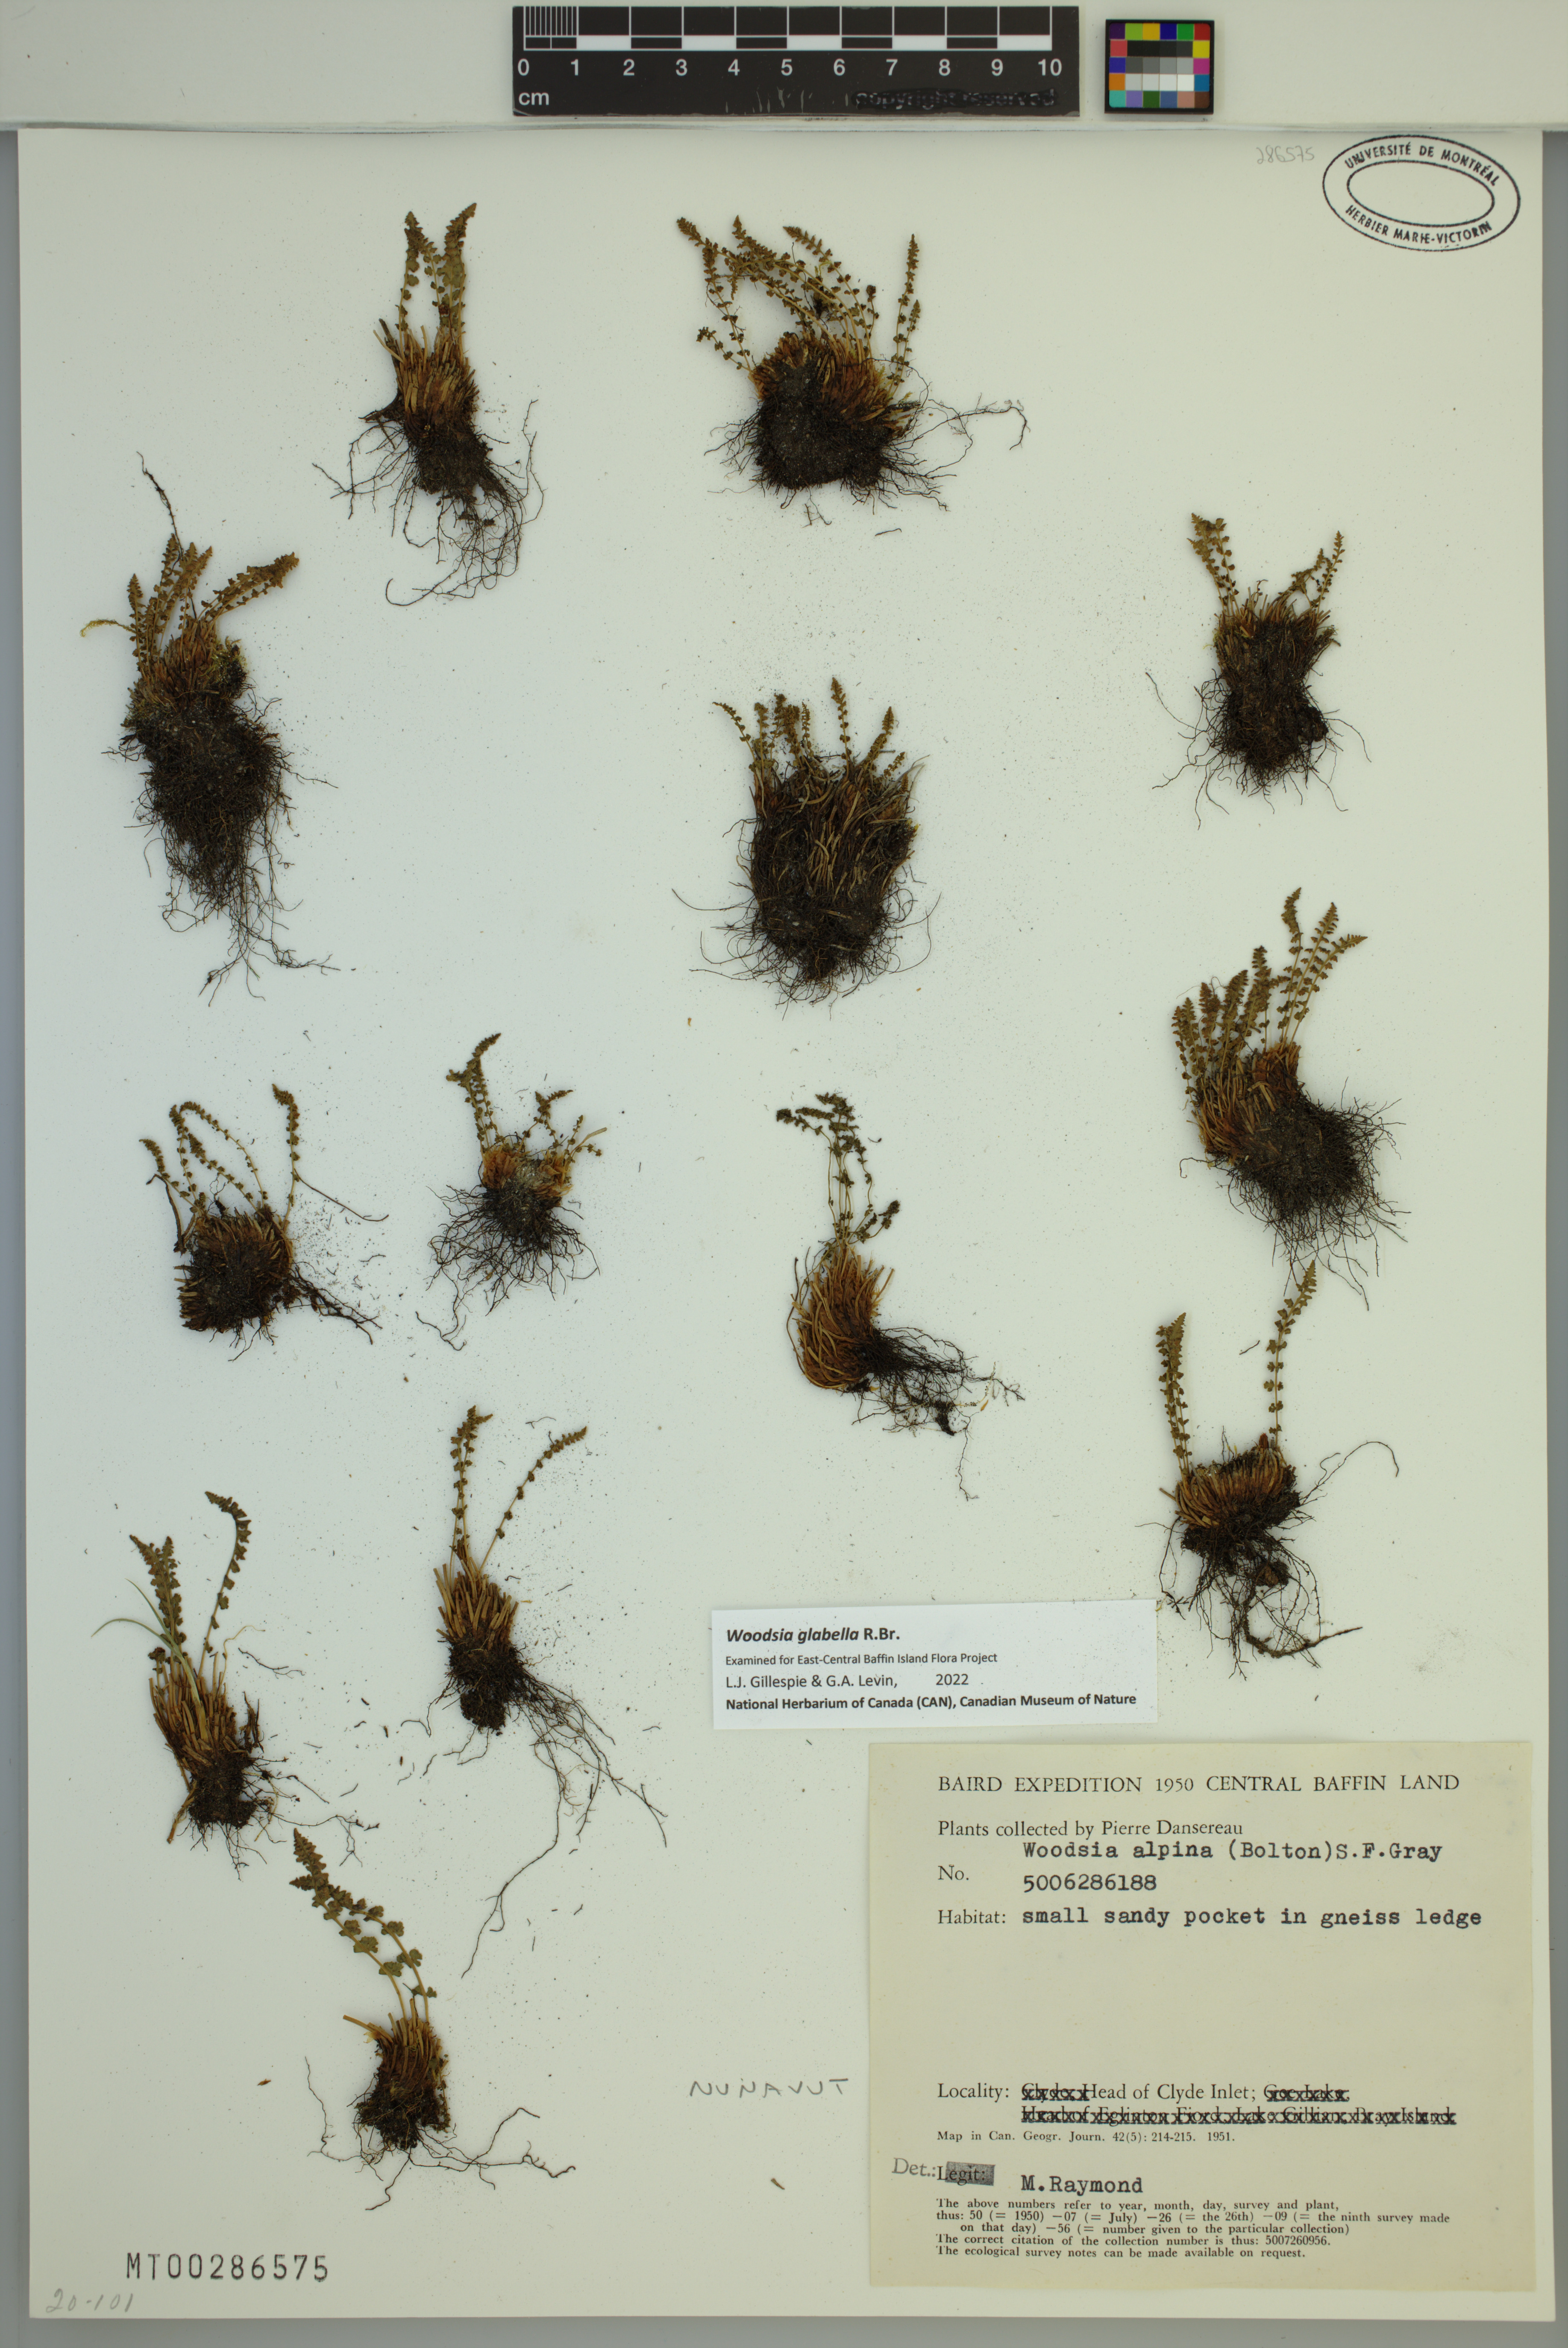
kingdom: Plantae
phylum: Tracheophyta
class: Polypodiopsida
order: Polypodiales
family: Woodsiaceae
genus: Woodsia
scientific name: Woodsia glabella
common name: Smooth woodsia
